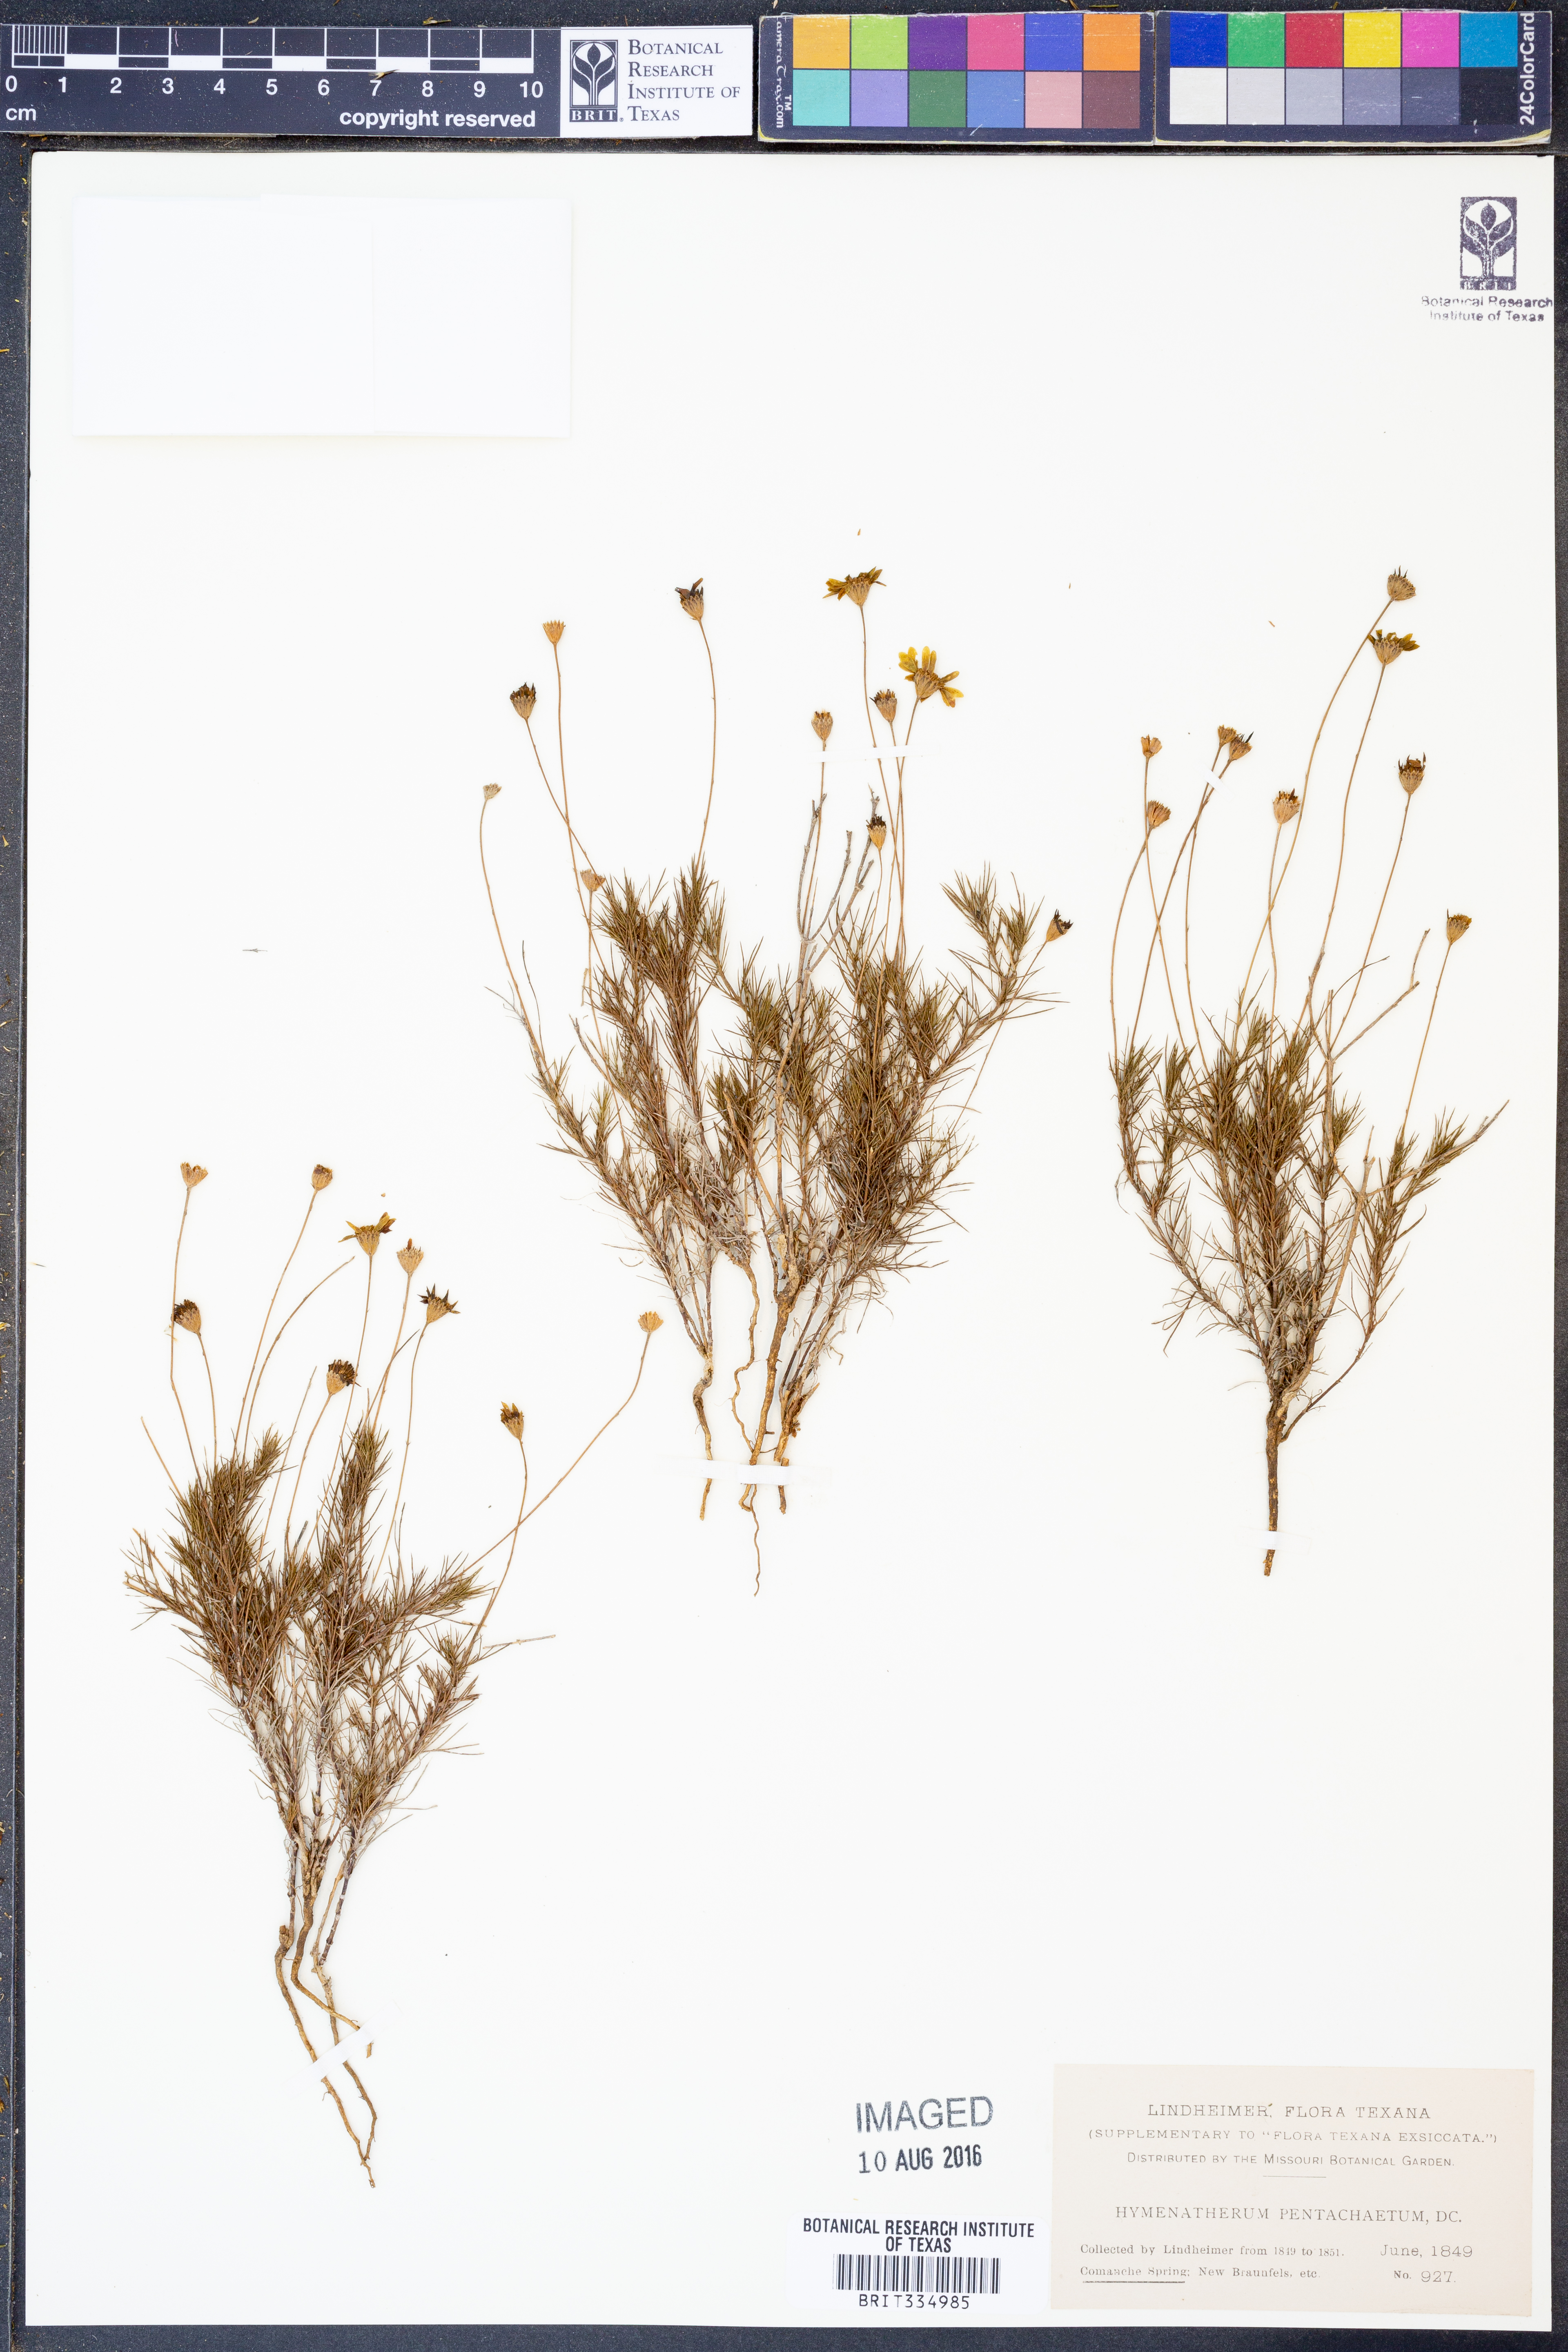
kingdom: Plantae
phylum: Tracheophyta
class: Magnoliopsida
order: Asterales
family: Asteraceae
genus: Thymophylla
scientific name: Thymophylla pentachaeta
